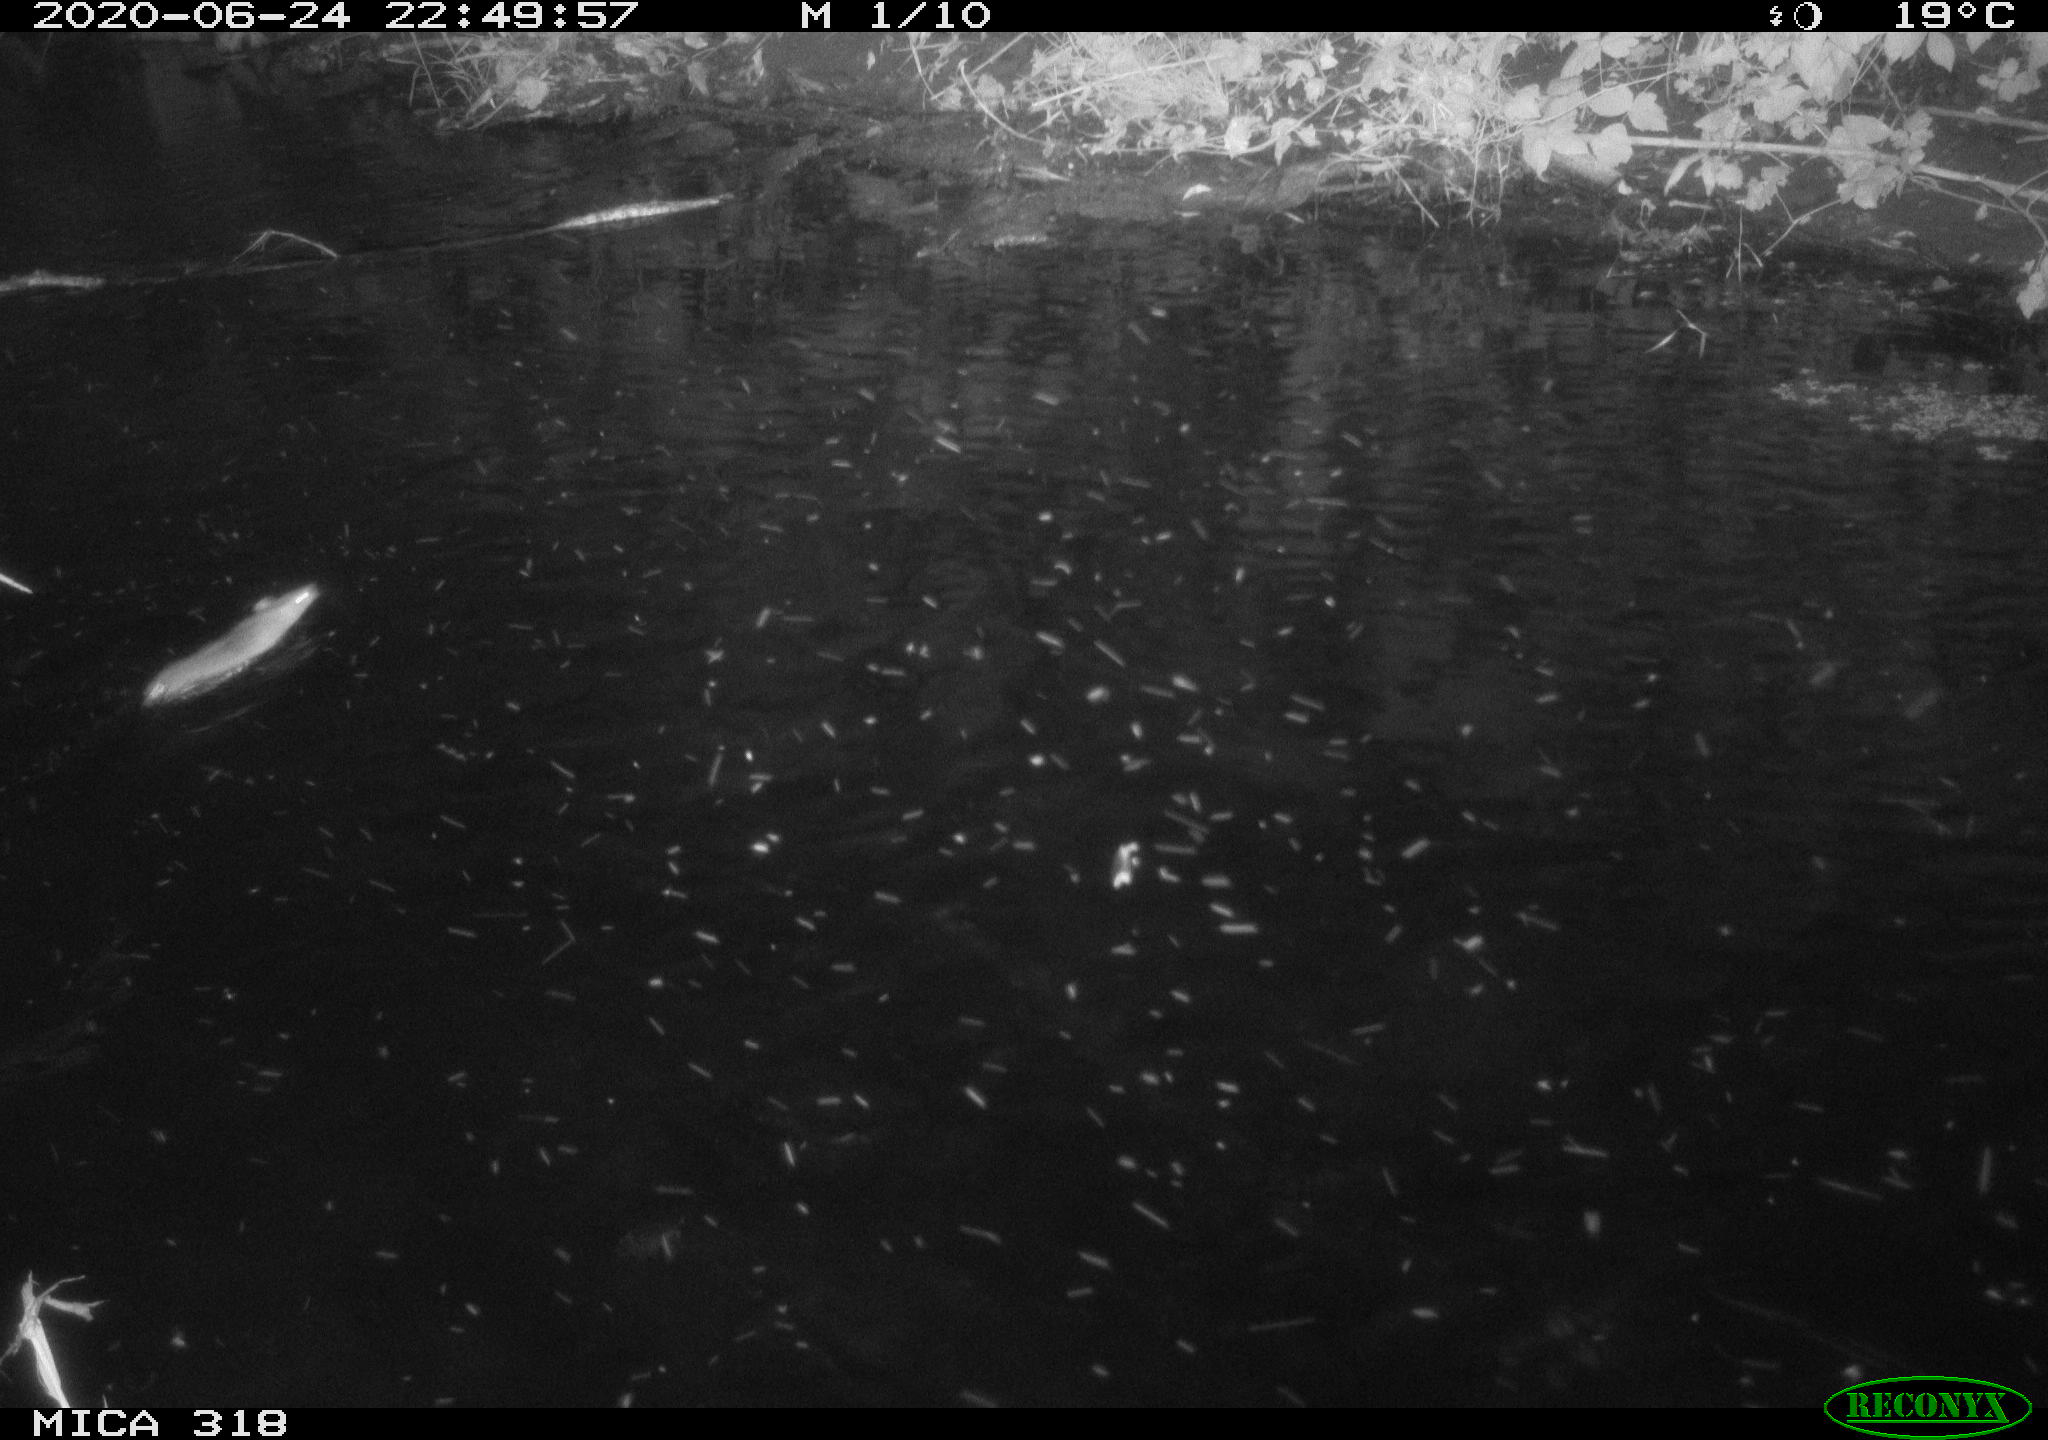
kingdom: Animalia
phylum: Chordata
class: Mammalia
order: Rodentia
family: Muridae
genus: Rattus
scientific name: Rattus norvegicus
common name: Brown rat
